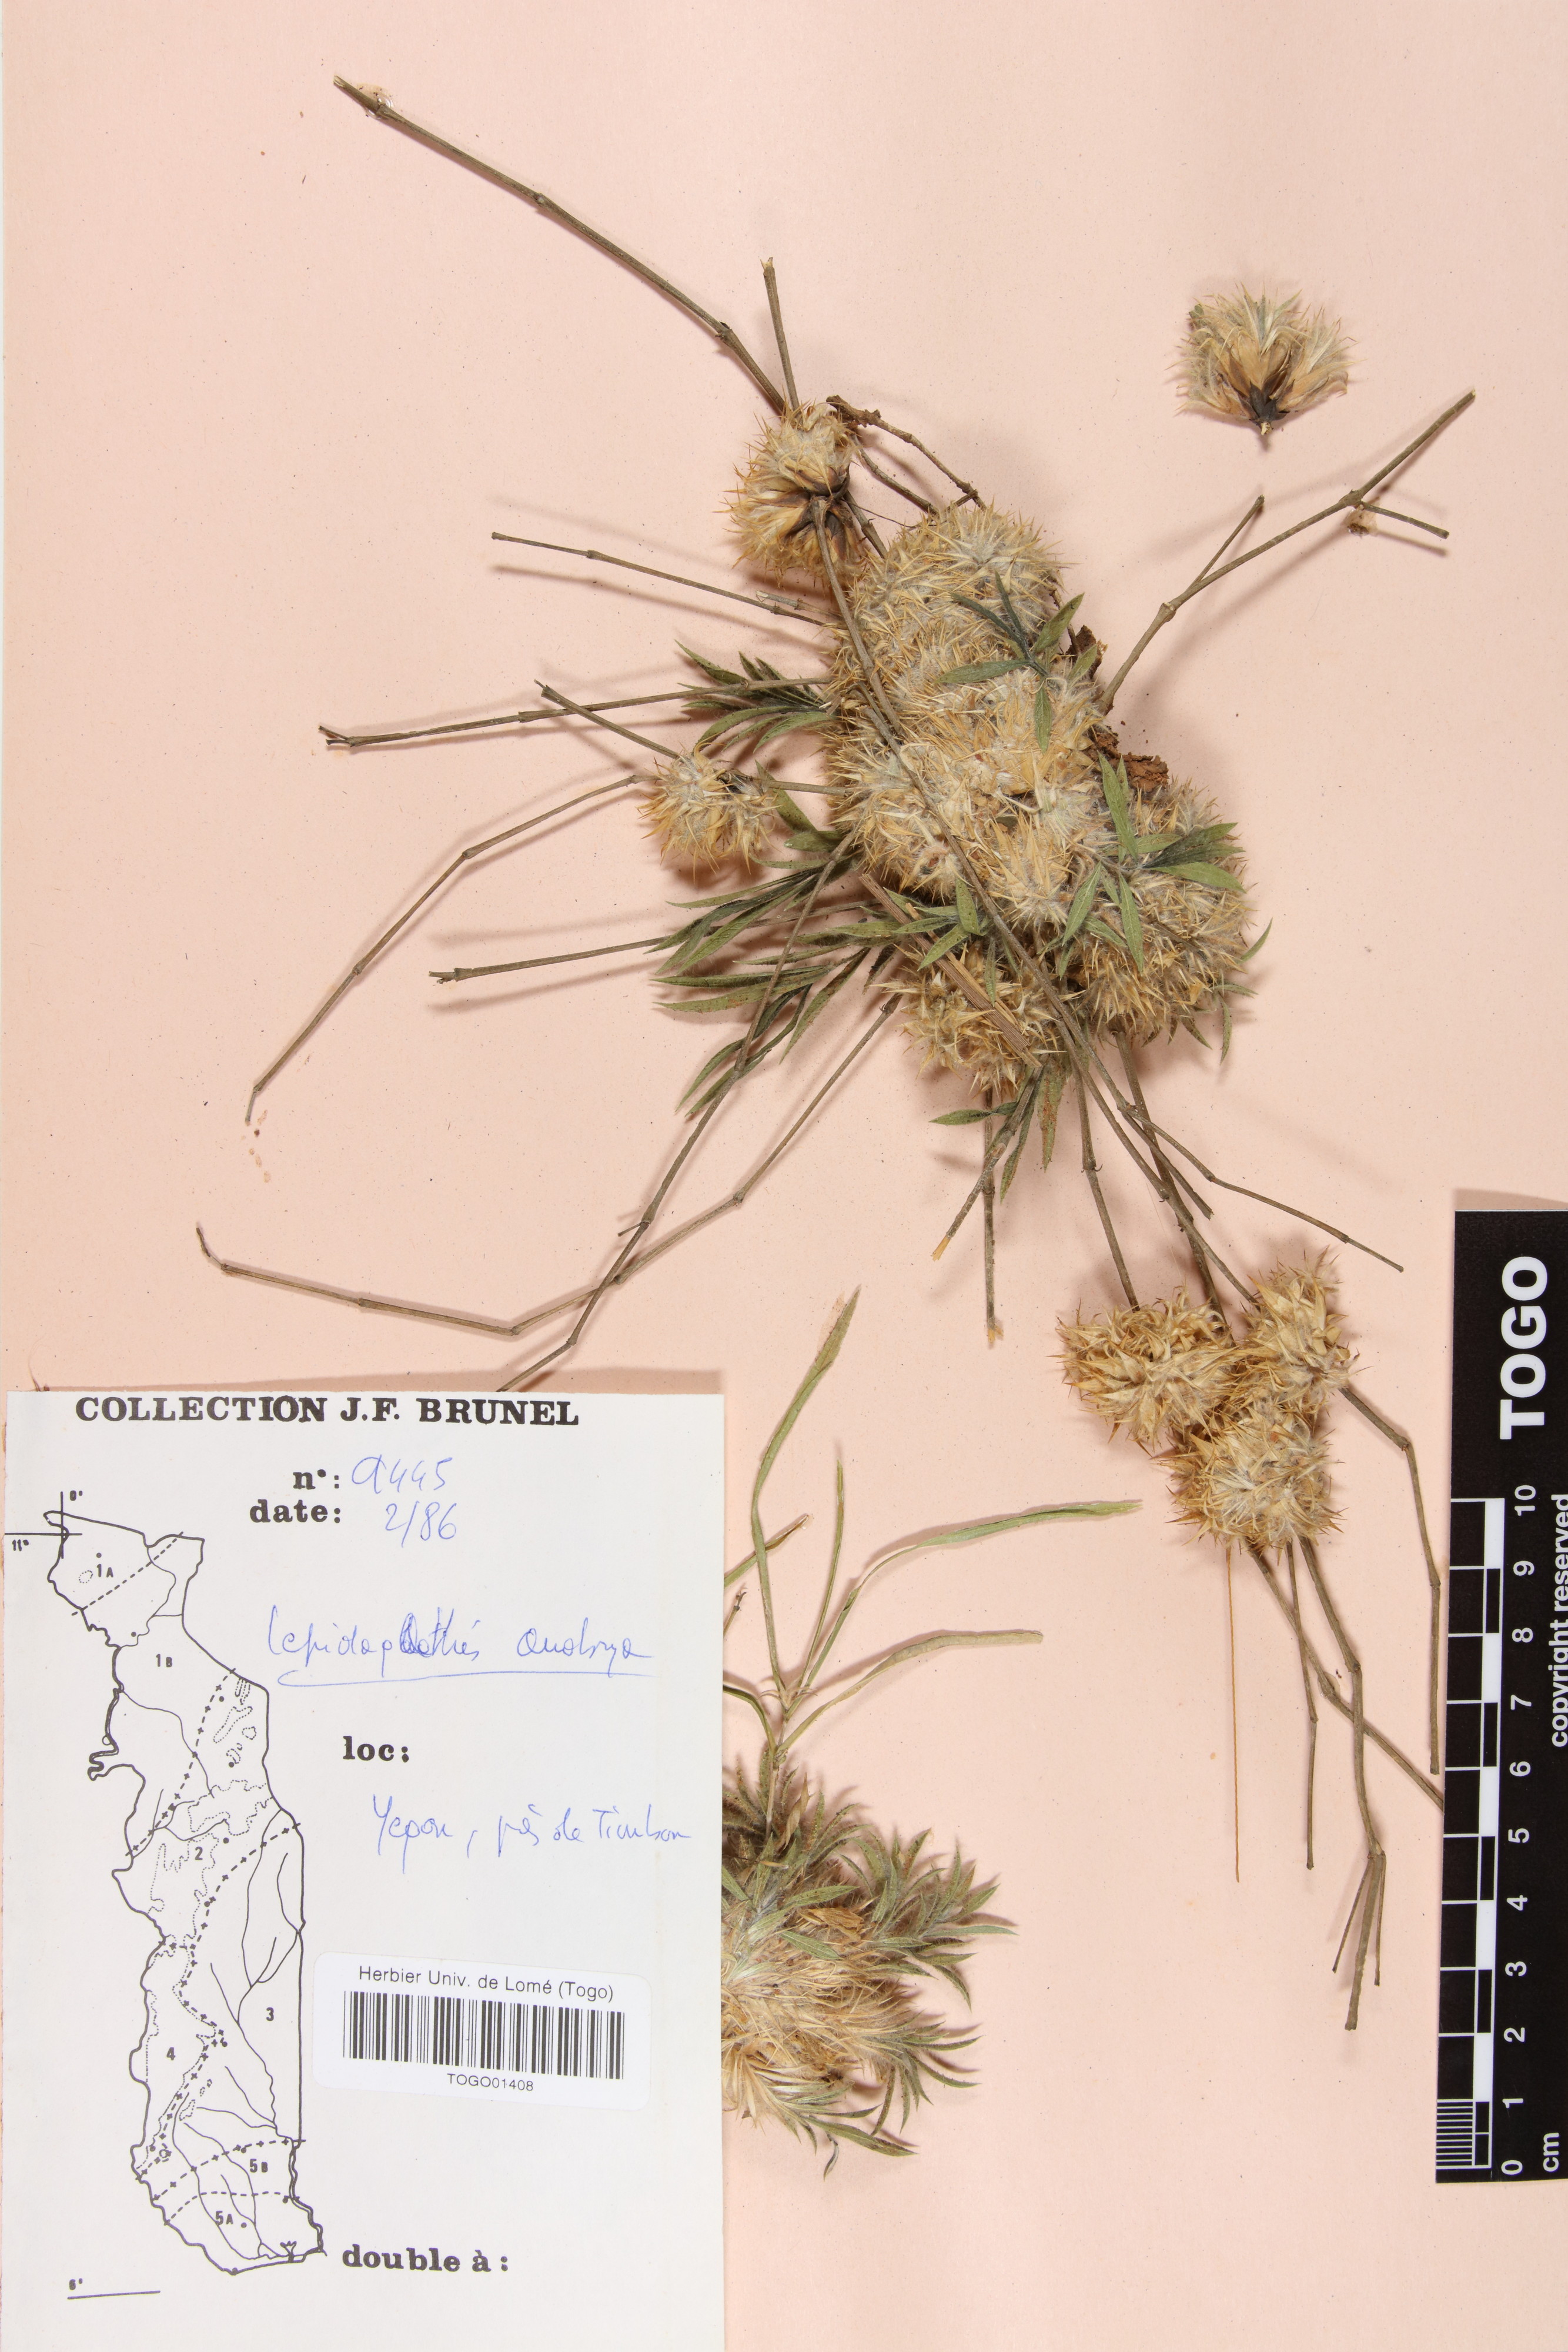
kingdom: Plantae
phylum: Tracheophyta
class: Magnoliopsida
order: Lamiales
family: Acanthaceae
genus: Lepidagathis
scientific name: Lepidagathis anobrya
